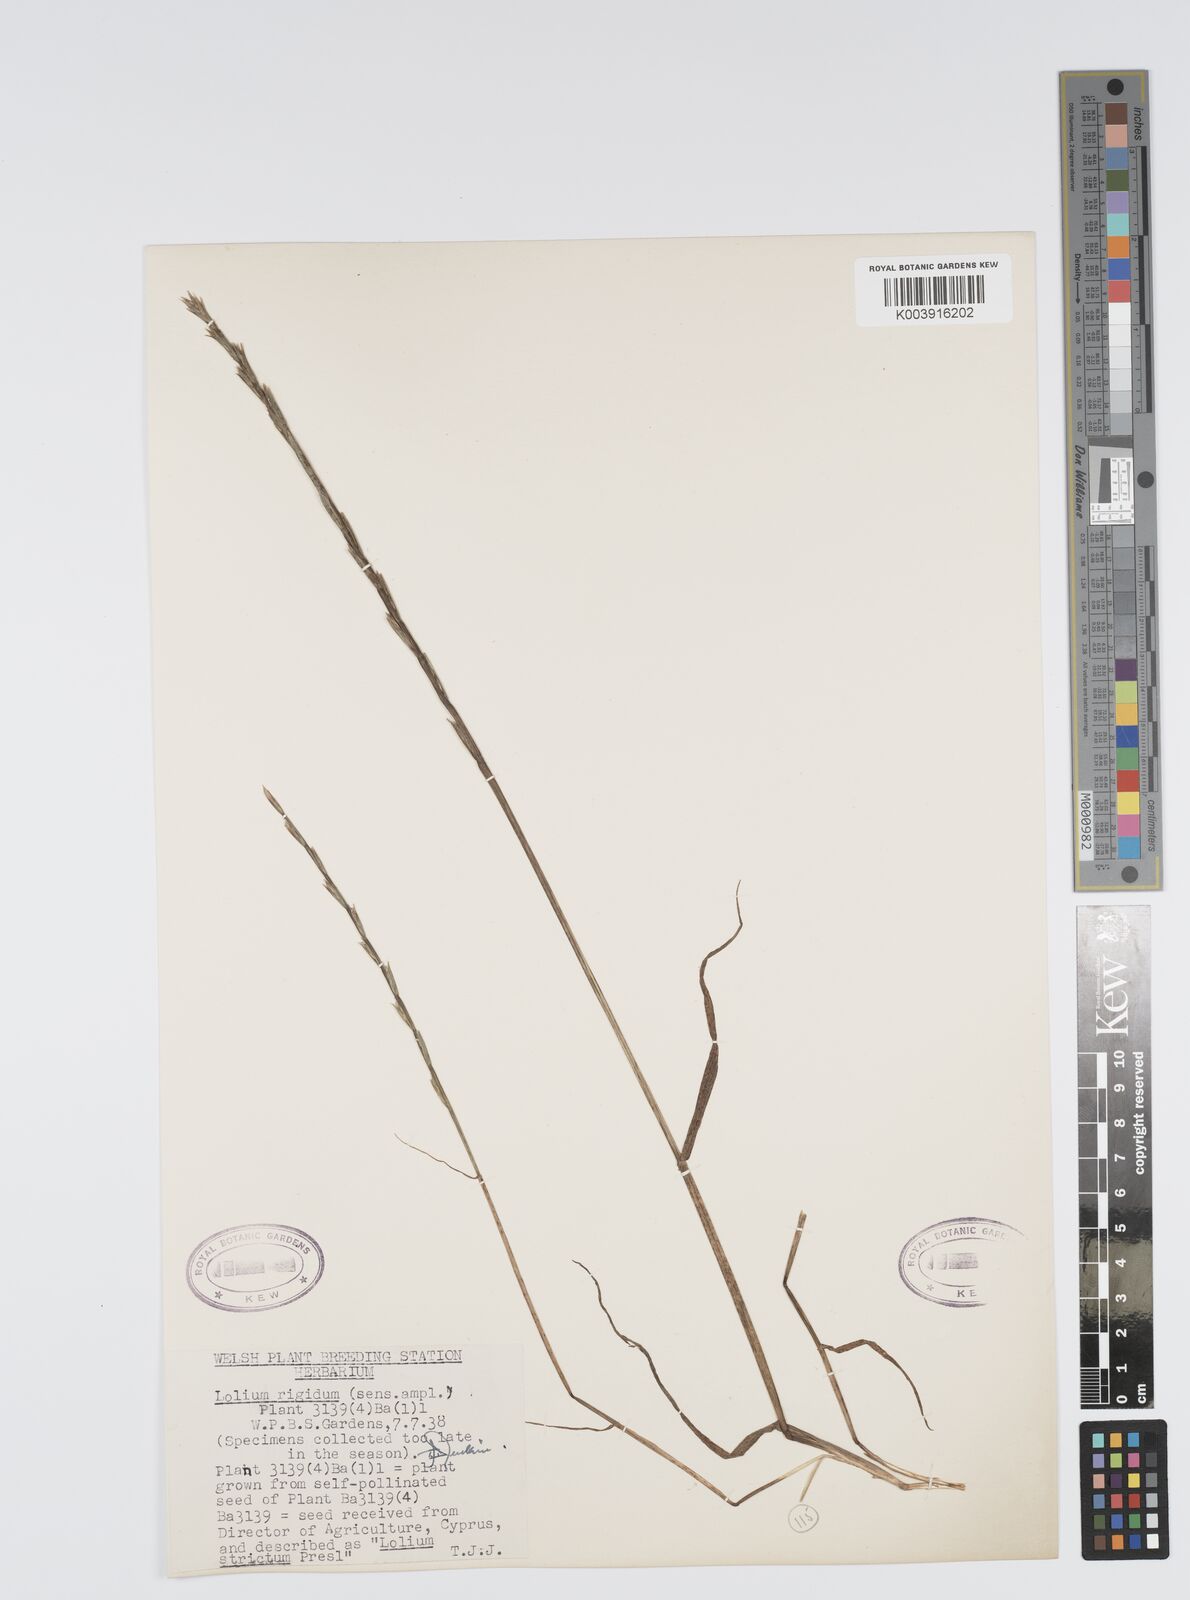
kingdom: Plantae
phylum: Tracheophyta
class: Liliopsida
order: Poales
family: Poaceae
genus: Lolium
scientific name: Lolium rigidum
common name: Wimmera ryegrass
